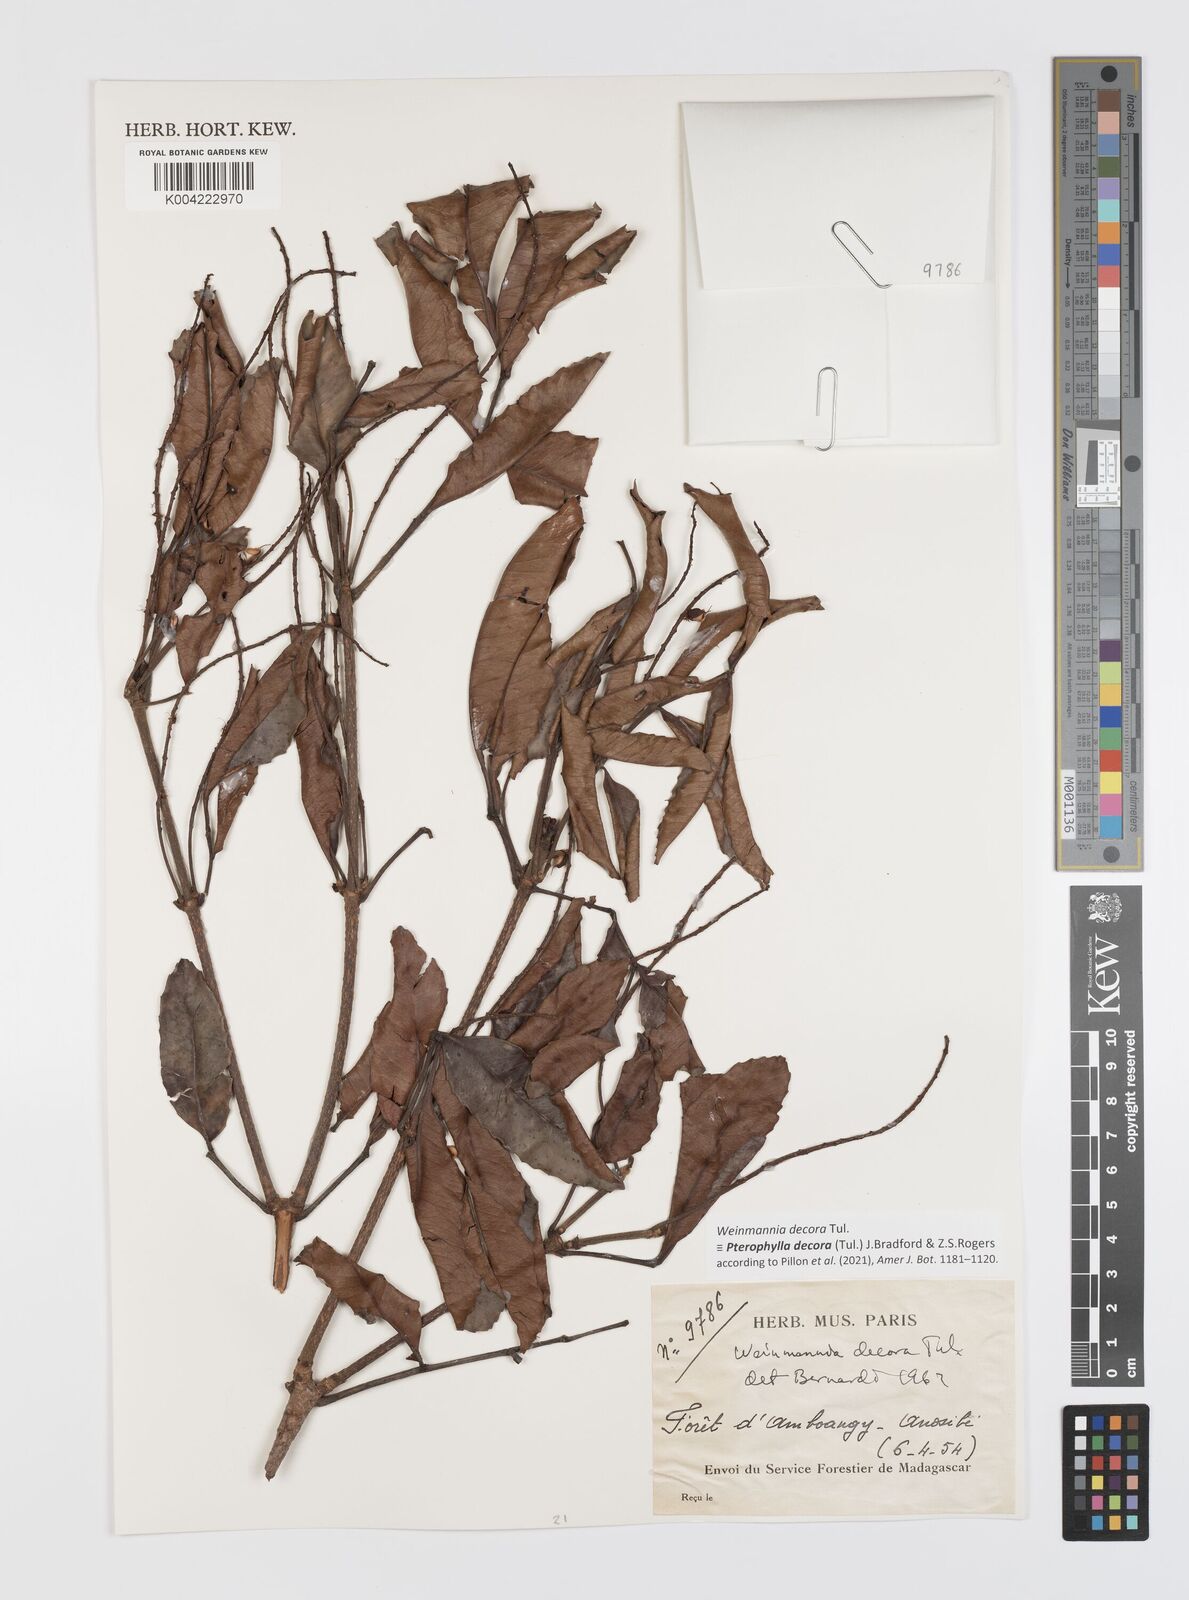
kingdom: Plantae
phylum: Tracheophyta
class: Magnoliopsida
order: Oxalidales
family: Cunoniaceae
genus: Pterophylla
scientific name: Pterophylla decora
